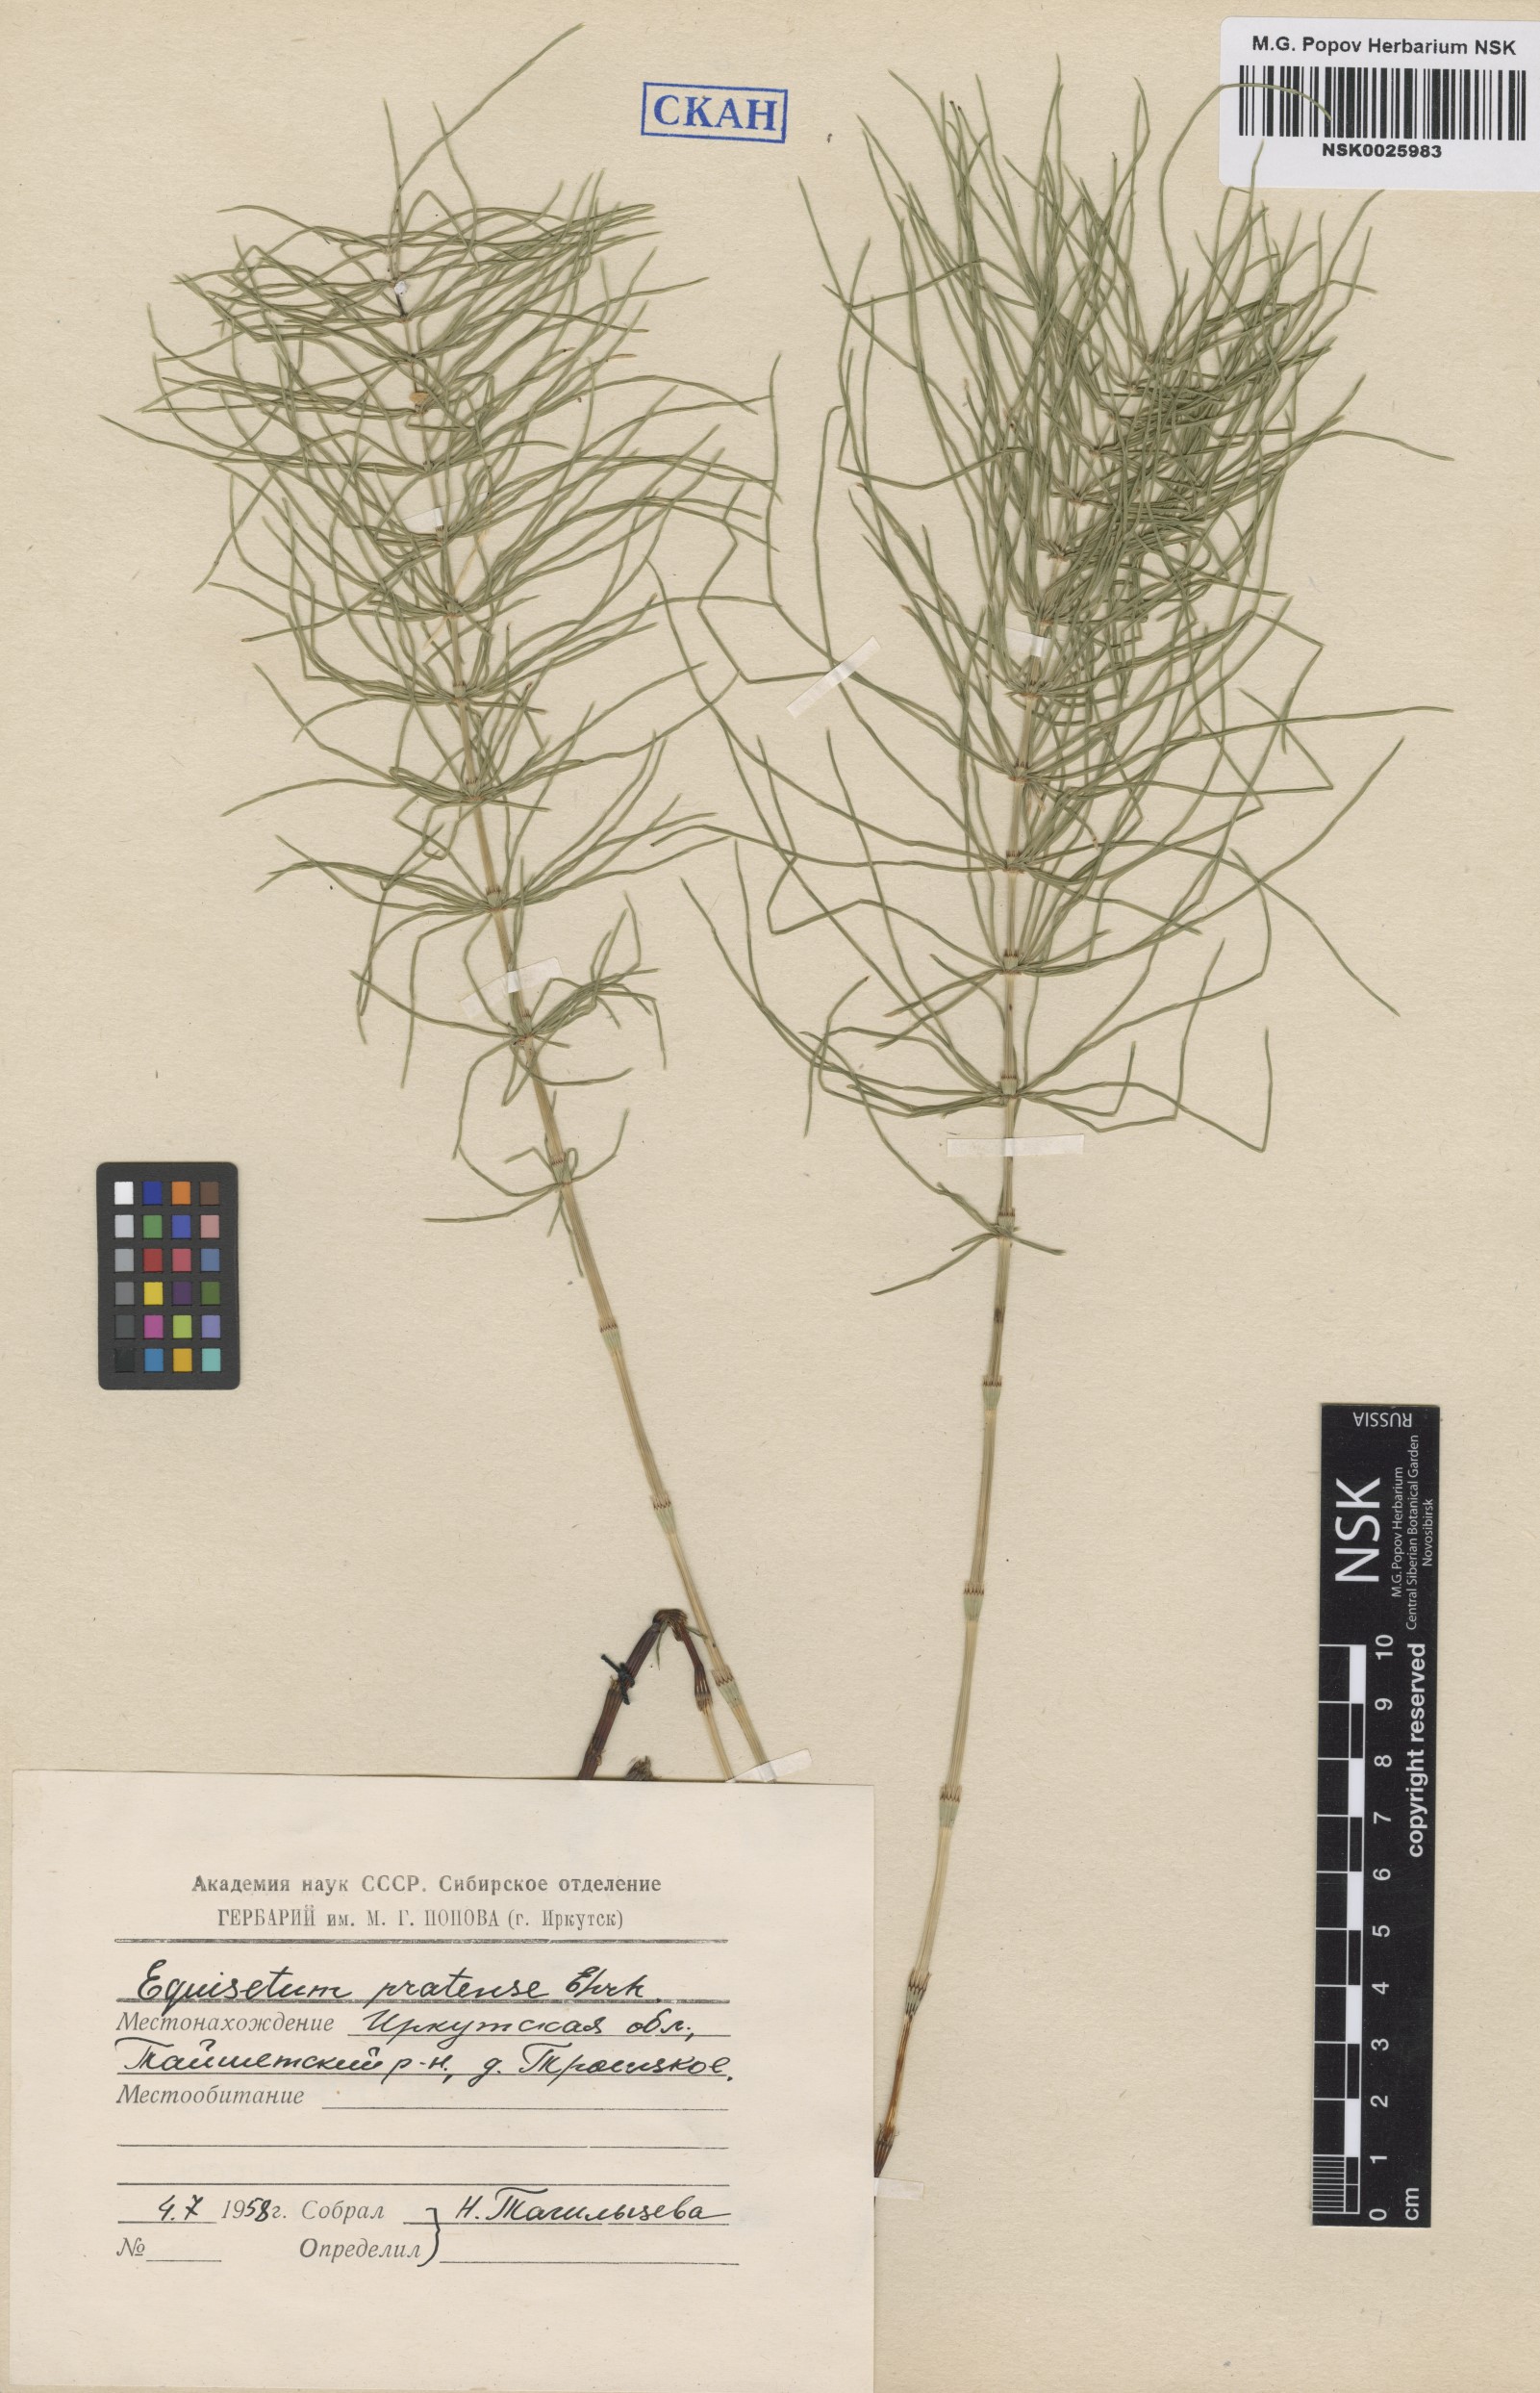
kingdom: Plantae
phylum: Tracheophyta
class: Polypodiopsida
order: Equisetales
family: Equisetaceae
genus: Equisetum
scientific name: Equisetum pratense
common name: Meadow horsetail
